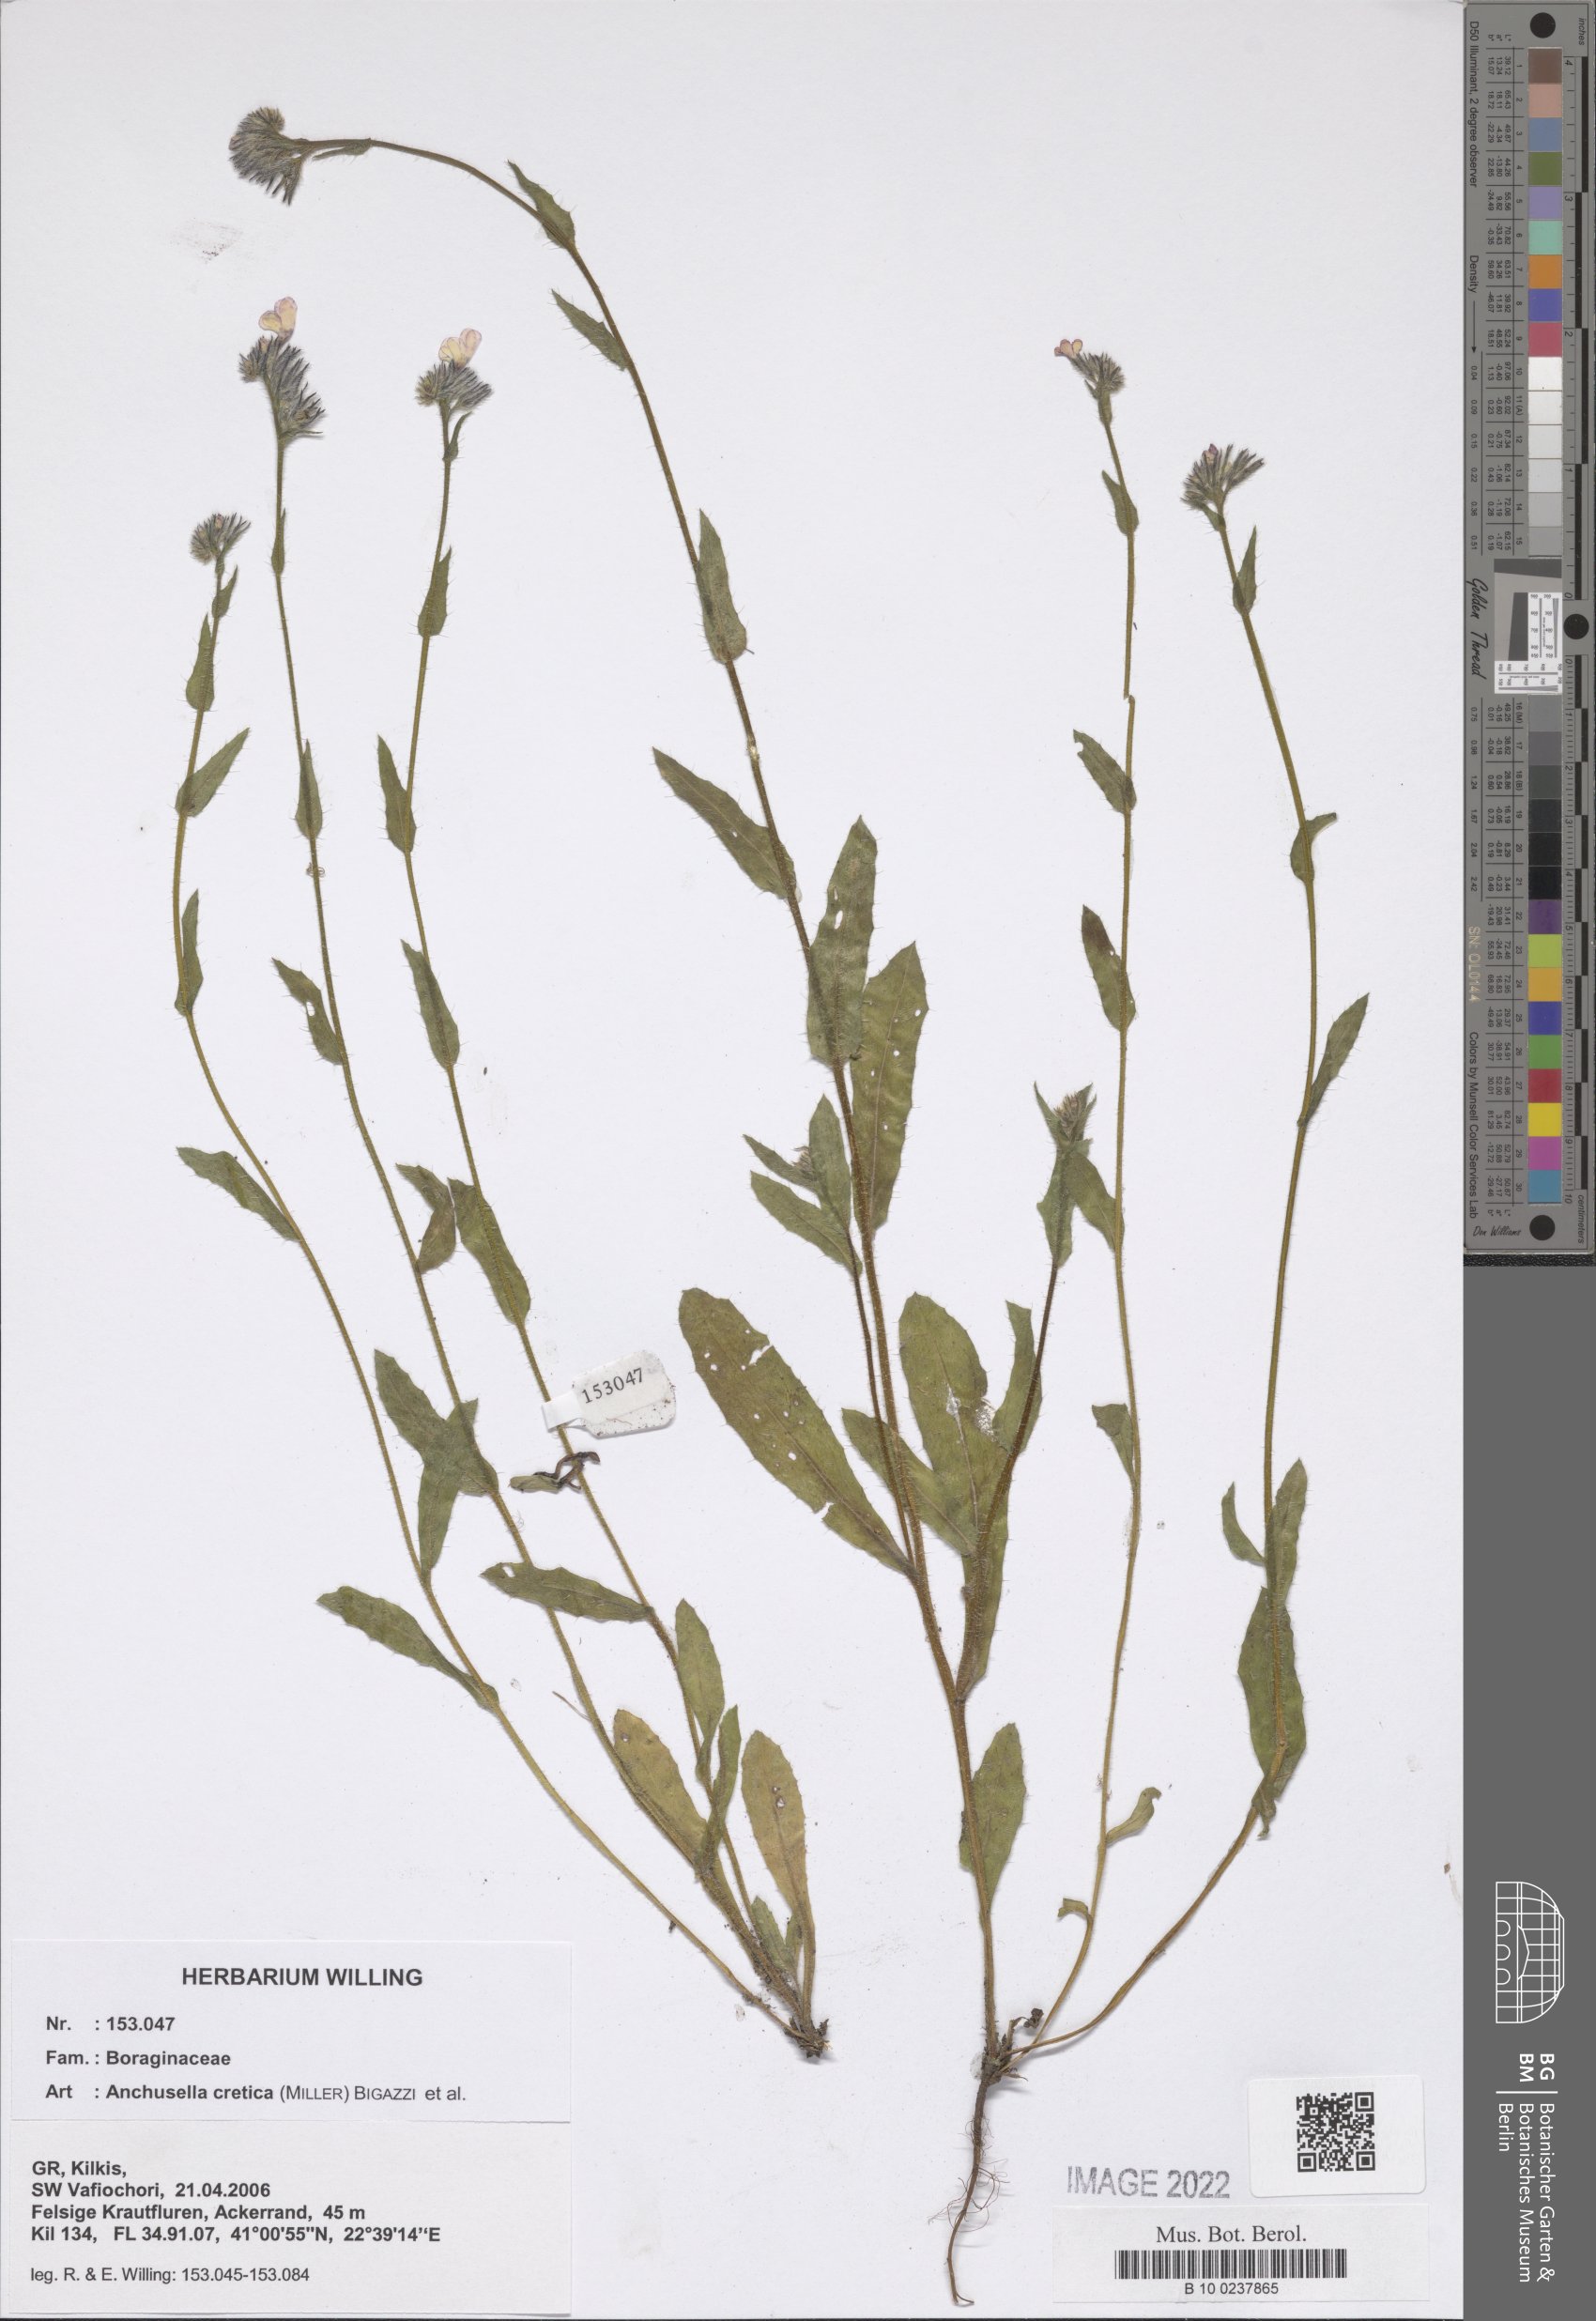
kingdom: Plantae
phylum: Tracheophyta
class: Magnoliopsida
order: Boraginales
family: Boraginaceae
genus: Lycopsis
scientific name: Lycopsis arvensis
